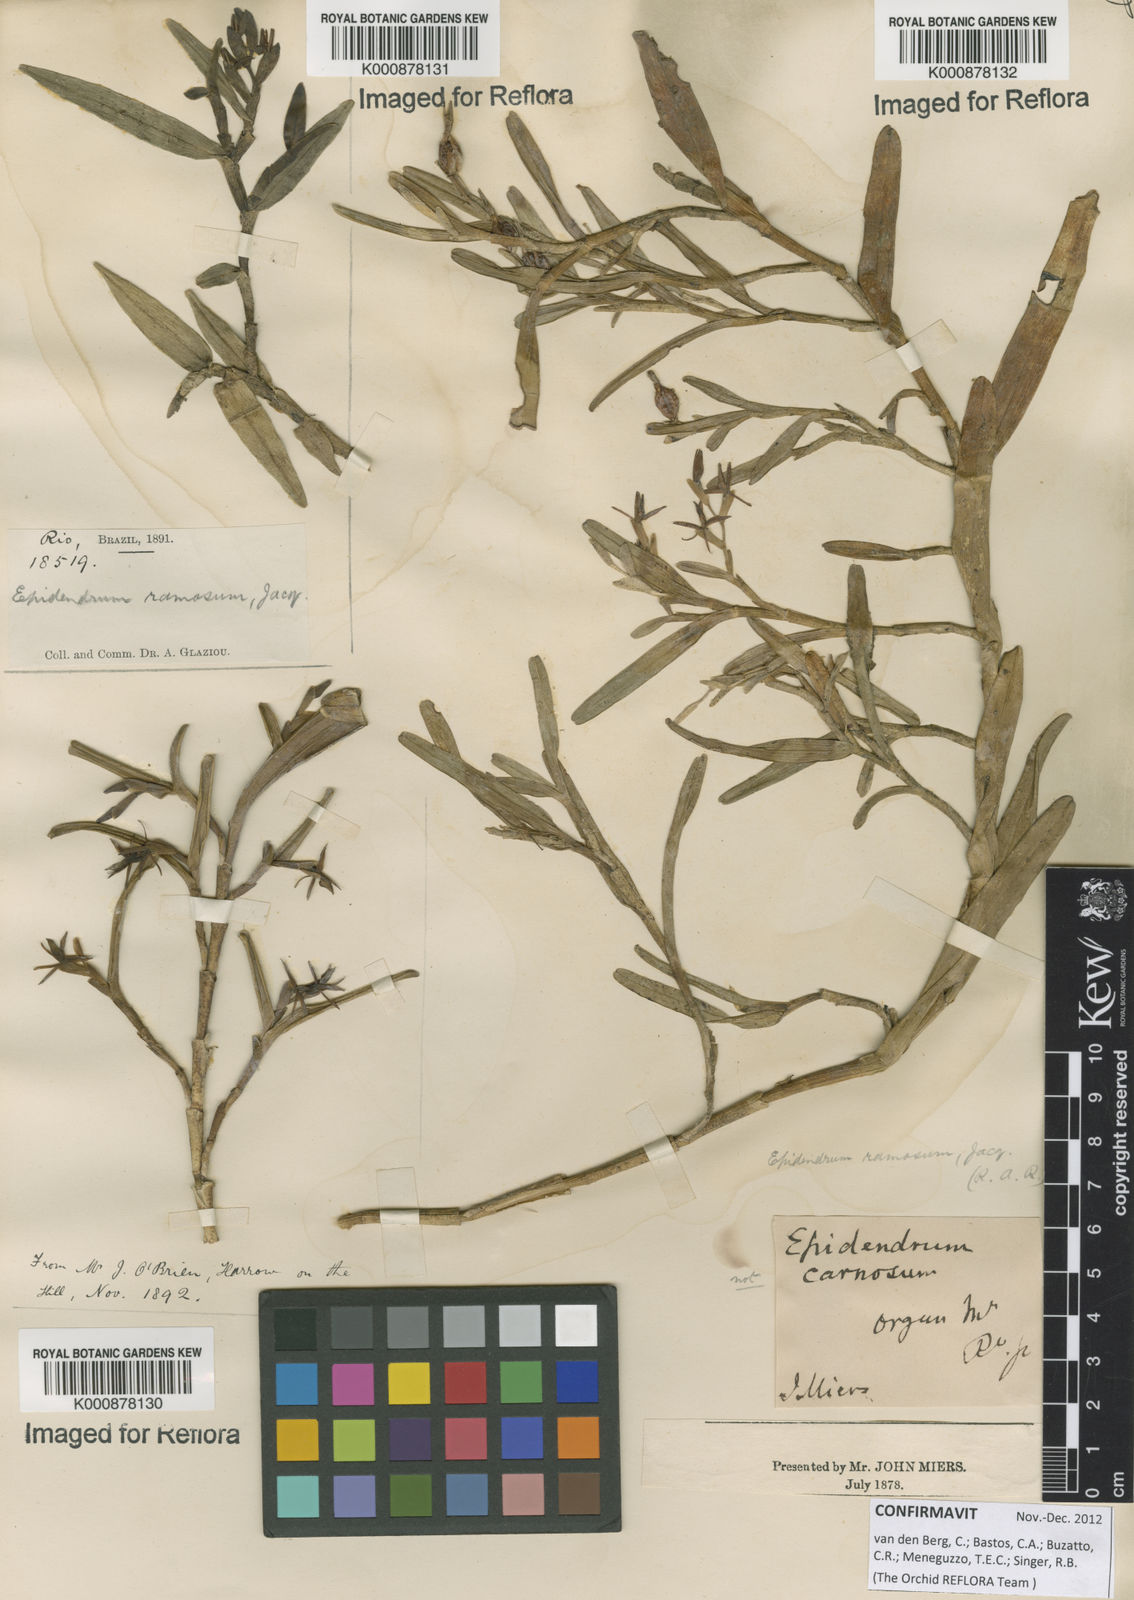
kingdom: Plantae
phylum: Tracheophyta
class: Liliopsida
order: Asparagales
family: Orchidaceae
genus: Epidendrum
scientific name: Epidendrum ramosum
